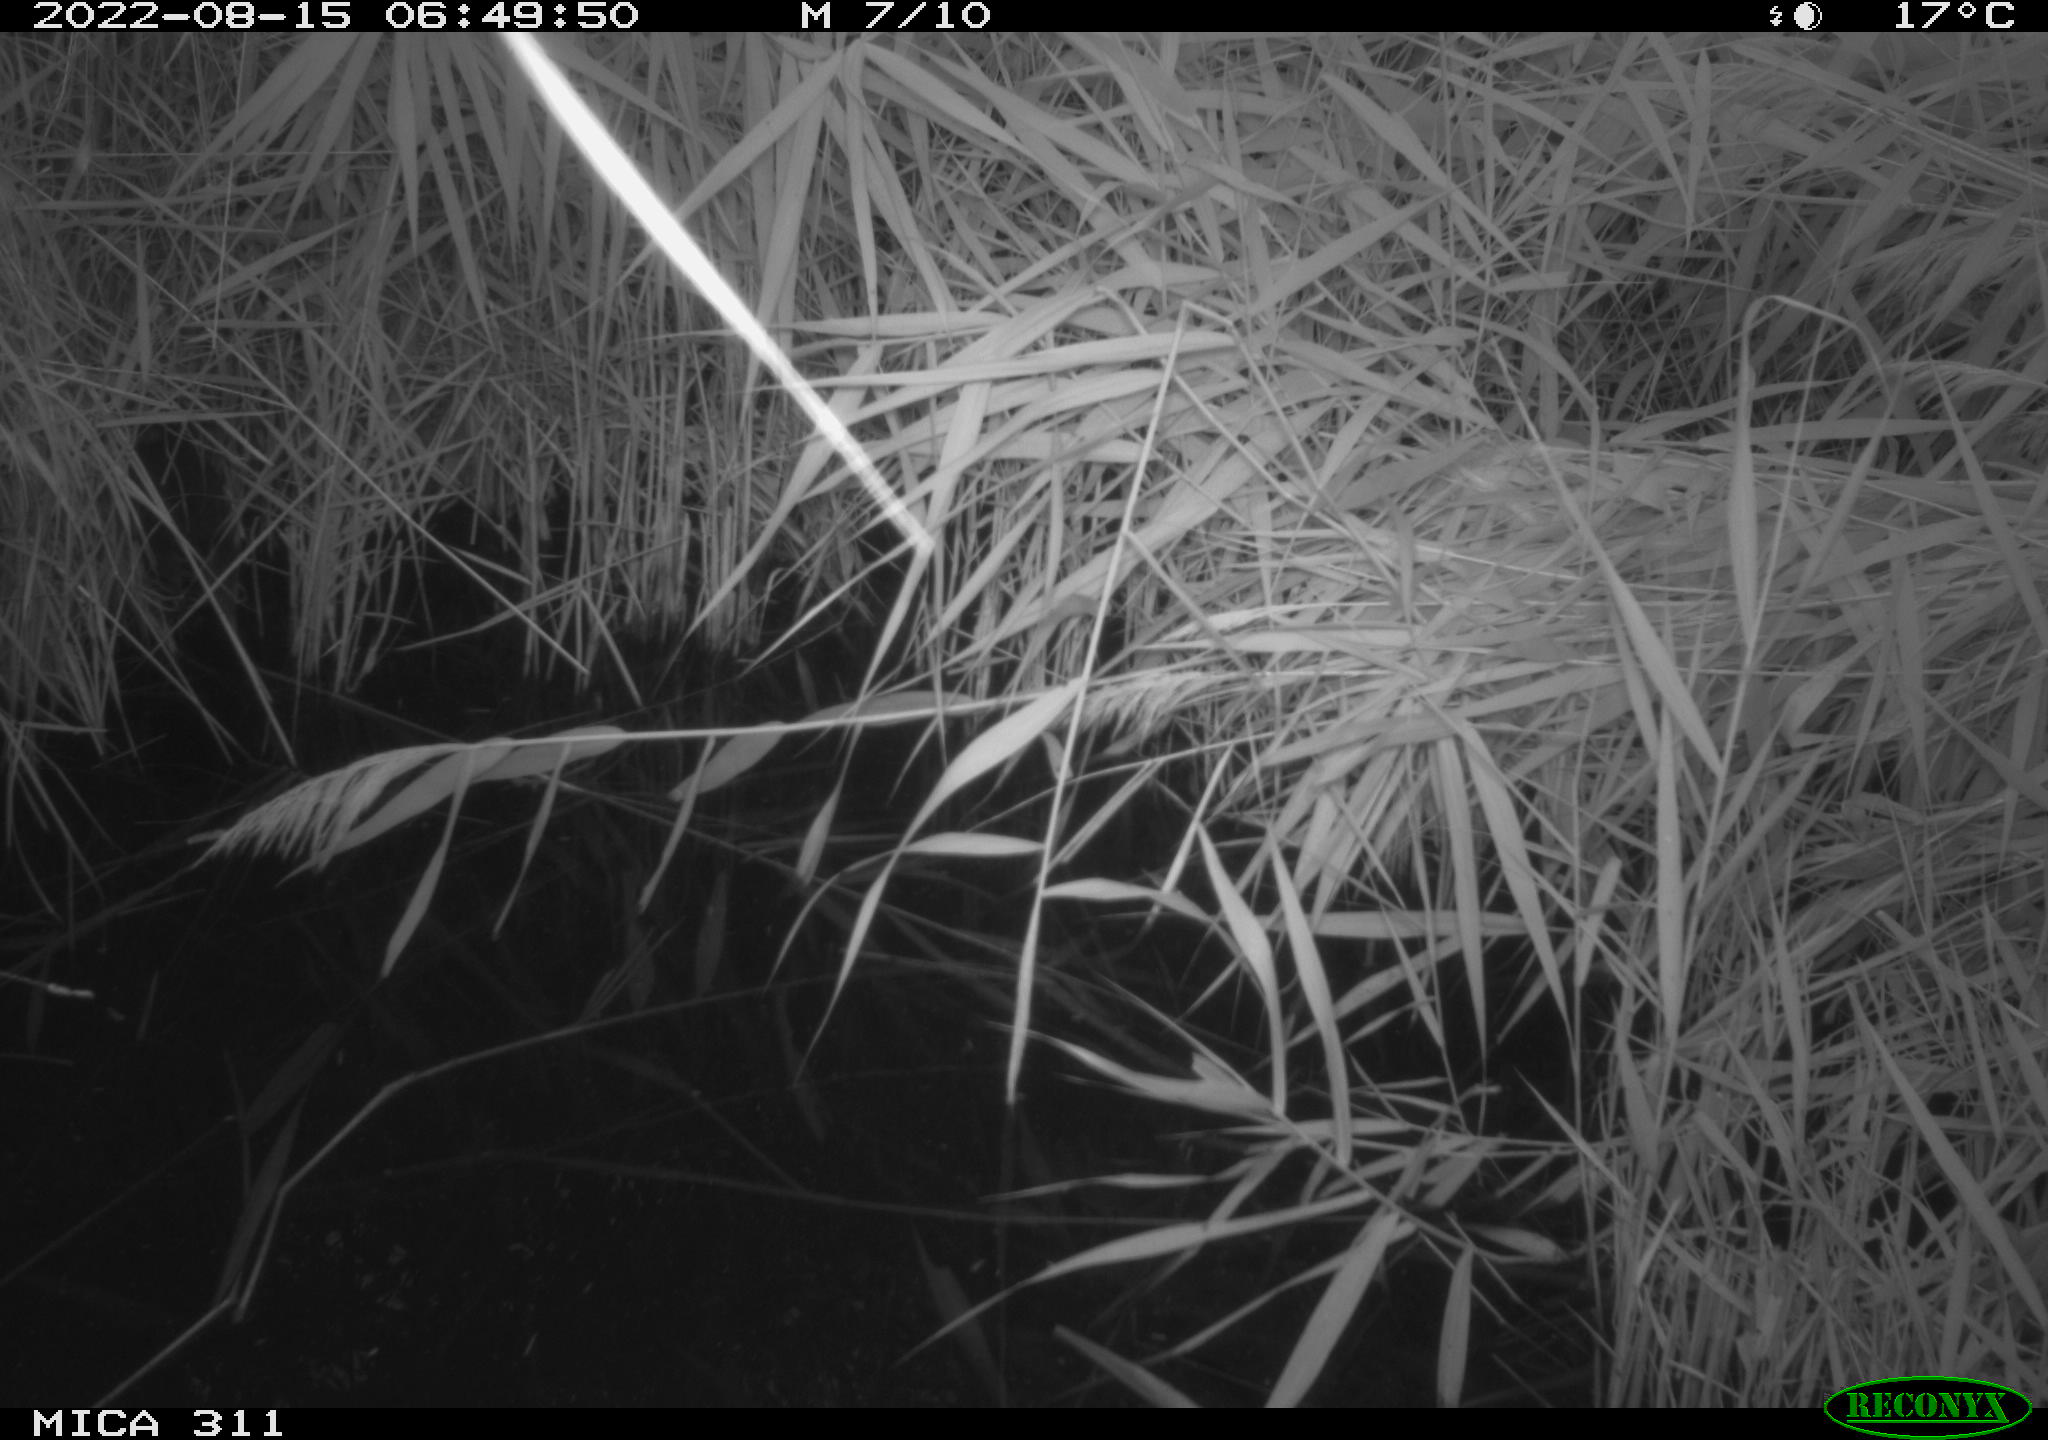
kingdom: Animalia
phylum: Chordata
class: Aves
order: Anseriformes
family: Anatidae
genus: Anas
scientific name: Anas platyrhynchos
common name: Mallard
